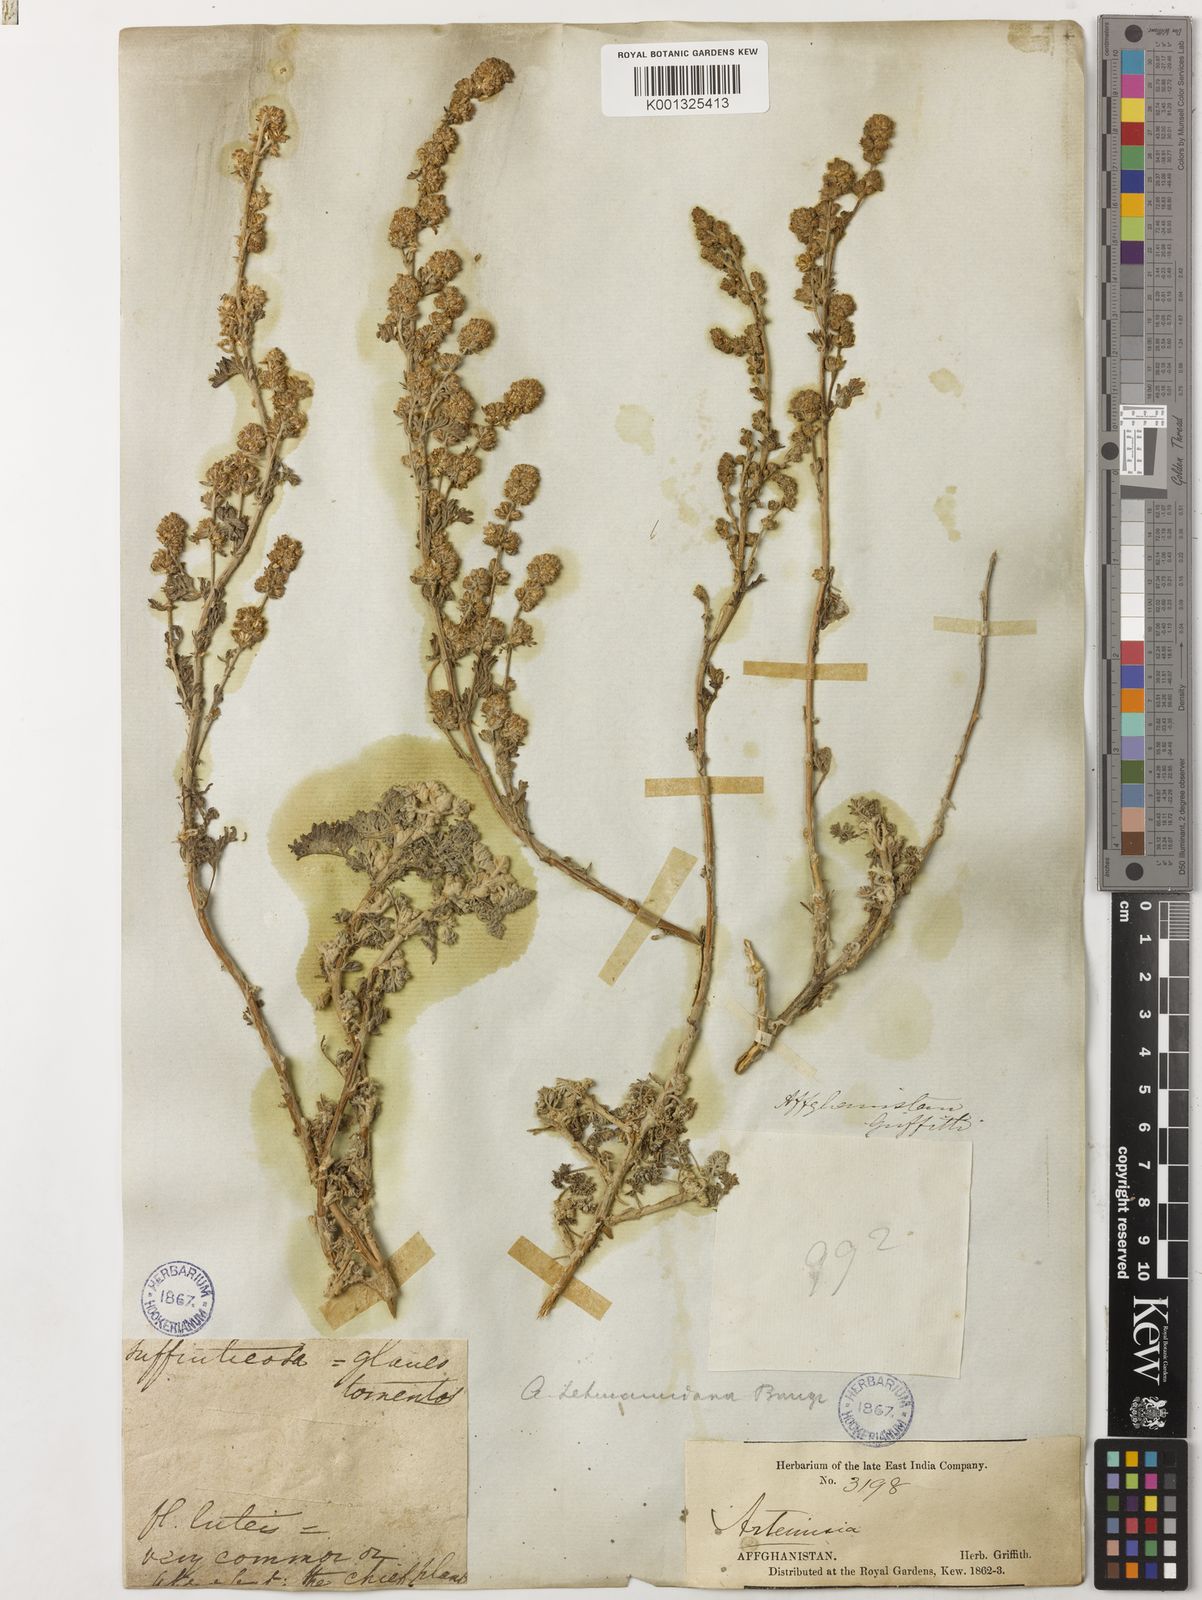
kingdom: Plantae
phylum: Tracheophyta
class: Magnoliopsida
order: Asterales
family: Asteraceae
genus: Artemisia
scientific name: Artemisia lehmanniana
